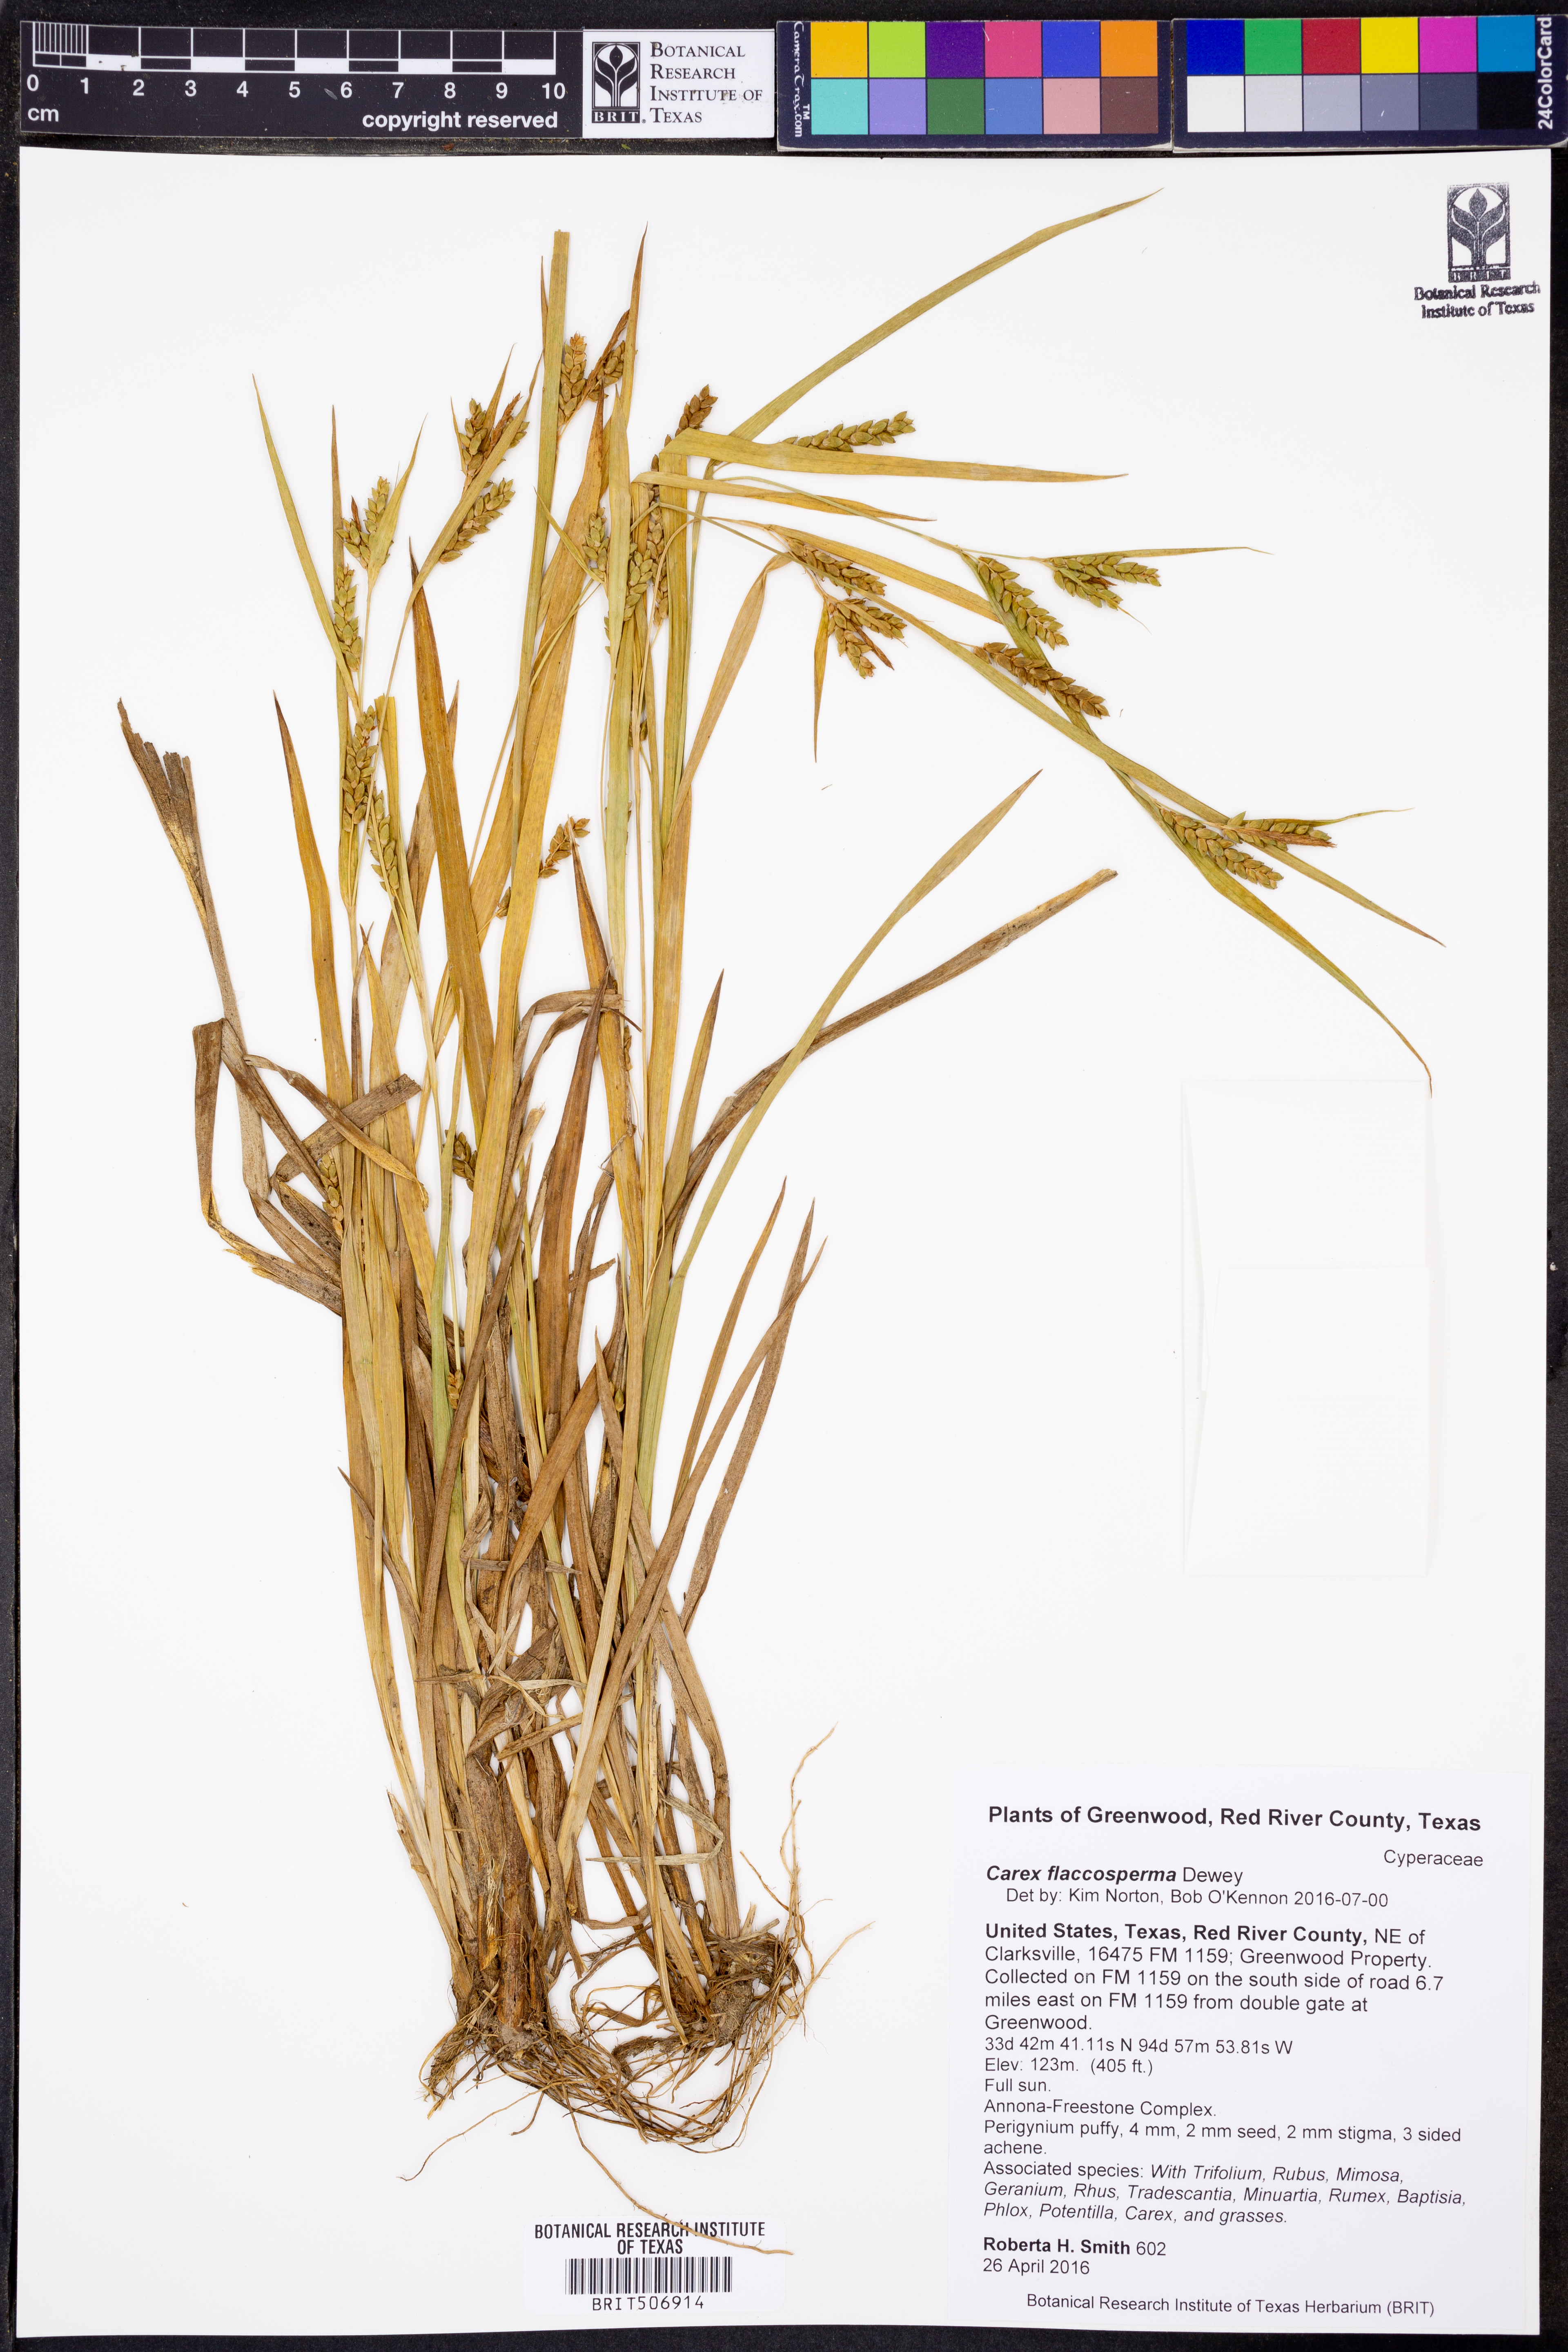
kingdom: Plantae
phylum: Tracheophyta
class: Liliopsida
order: Poales
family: Cyperaceae
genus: Carex
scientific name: Carex flaccosperma
